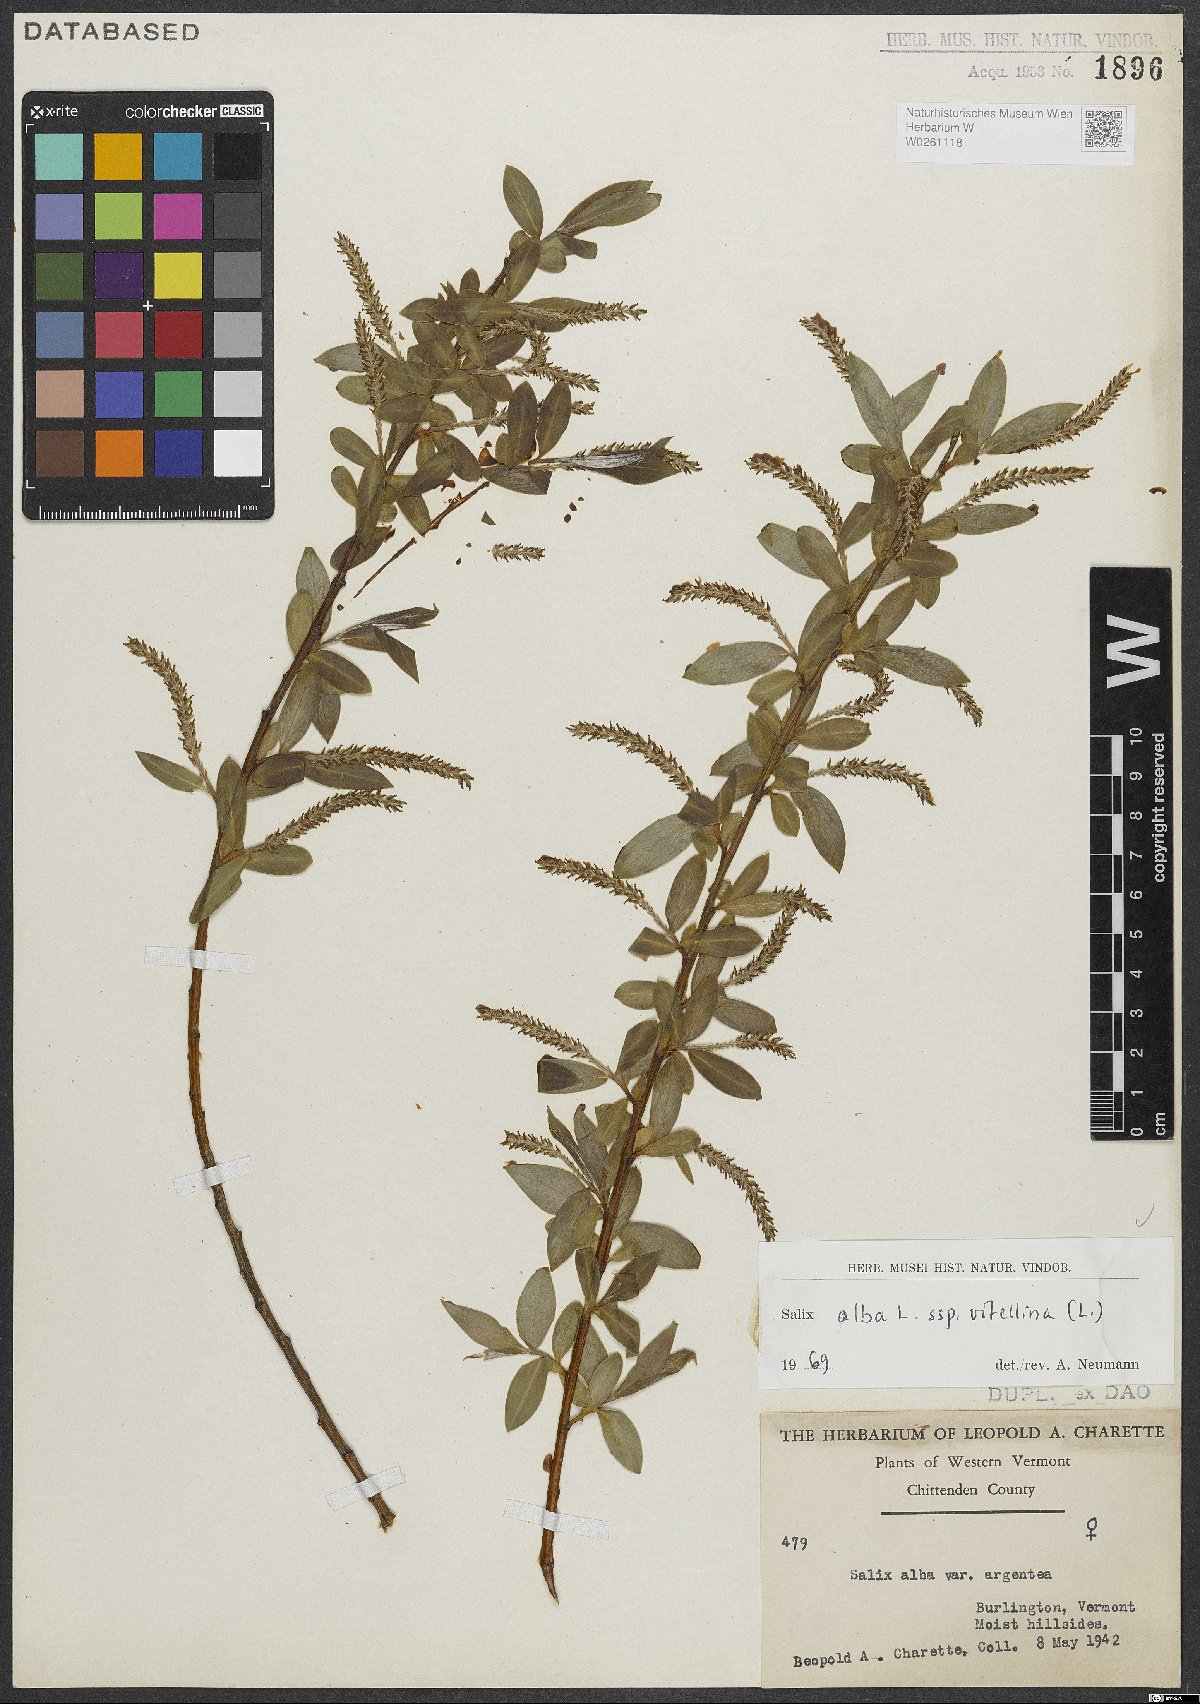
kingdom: Plantae
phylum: Tracheophyta
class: Magnoliopsida
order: Malpighiales
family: Salicaceae
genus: Salix
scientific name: Salix alba
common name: White willow
